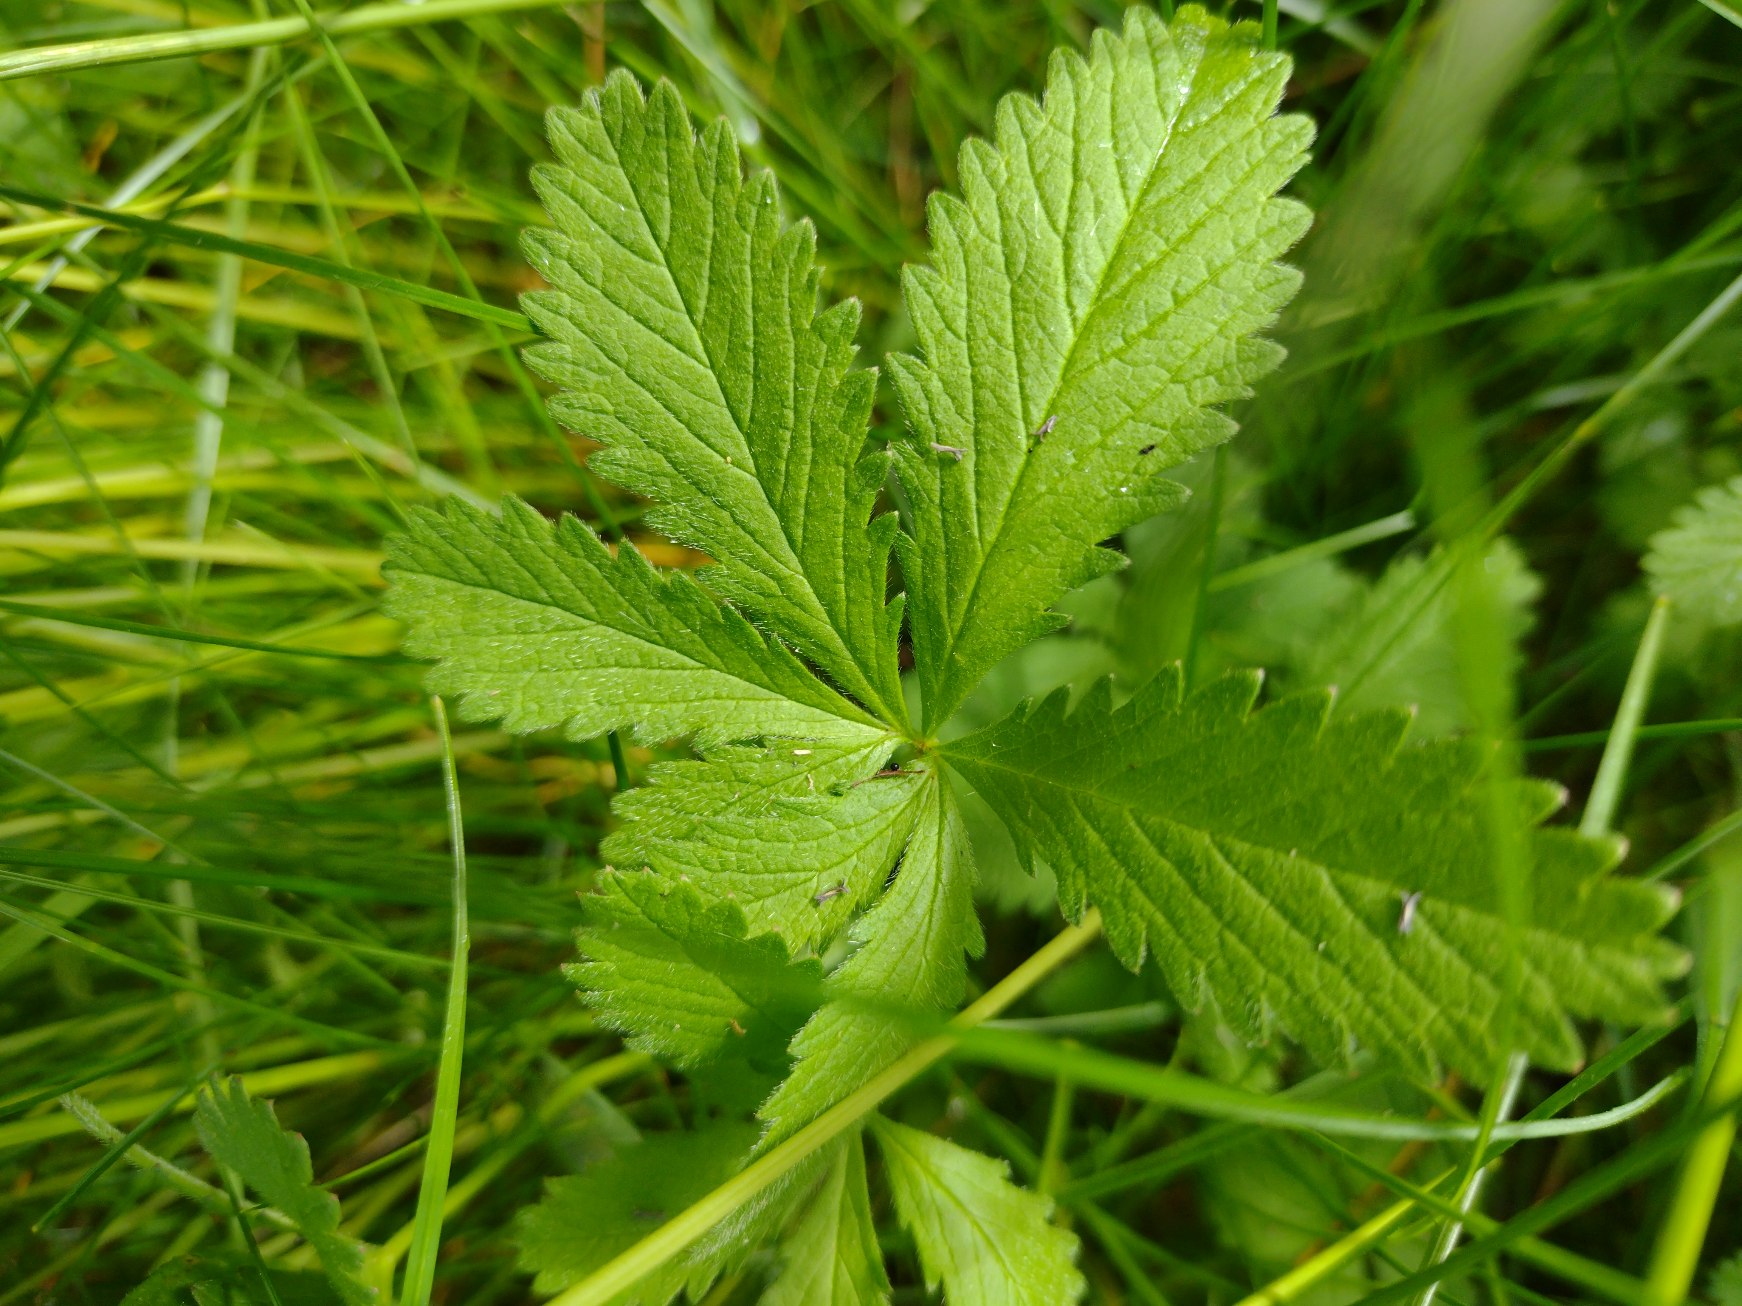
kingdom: Plantae
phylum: Tracheophyta
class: Magnoliopsida
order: Rosales
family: Rosaceae
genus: Potentilla
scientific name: Potentilla reptans
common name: Krybende potentil
